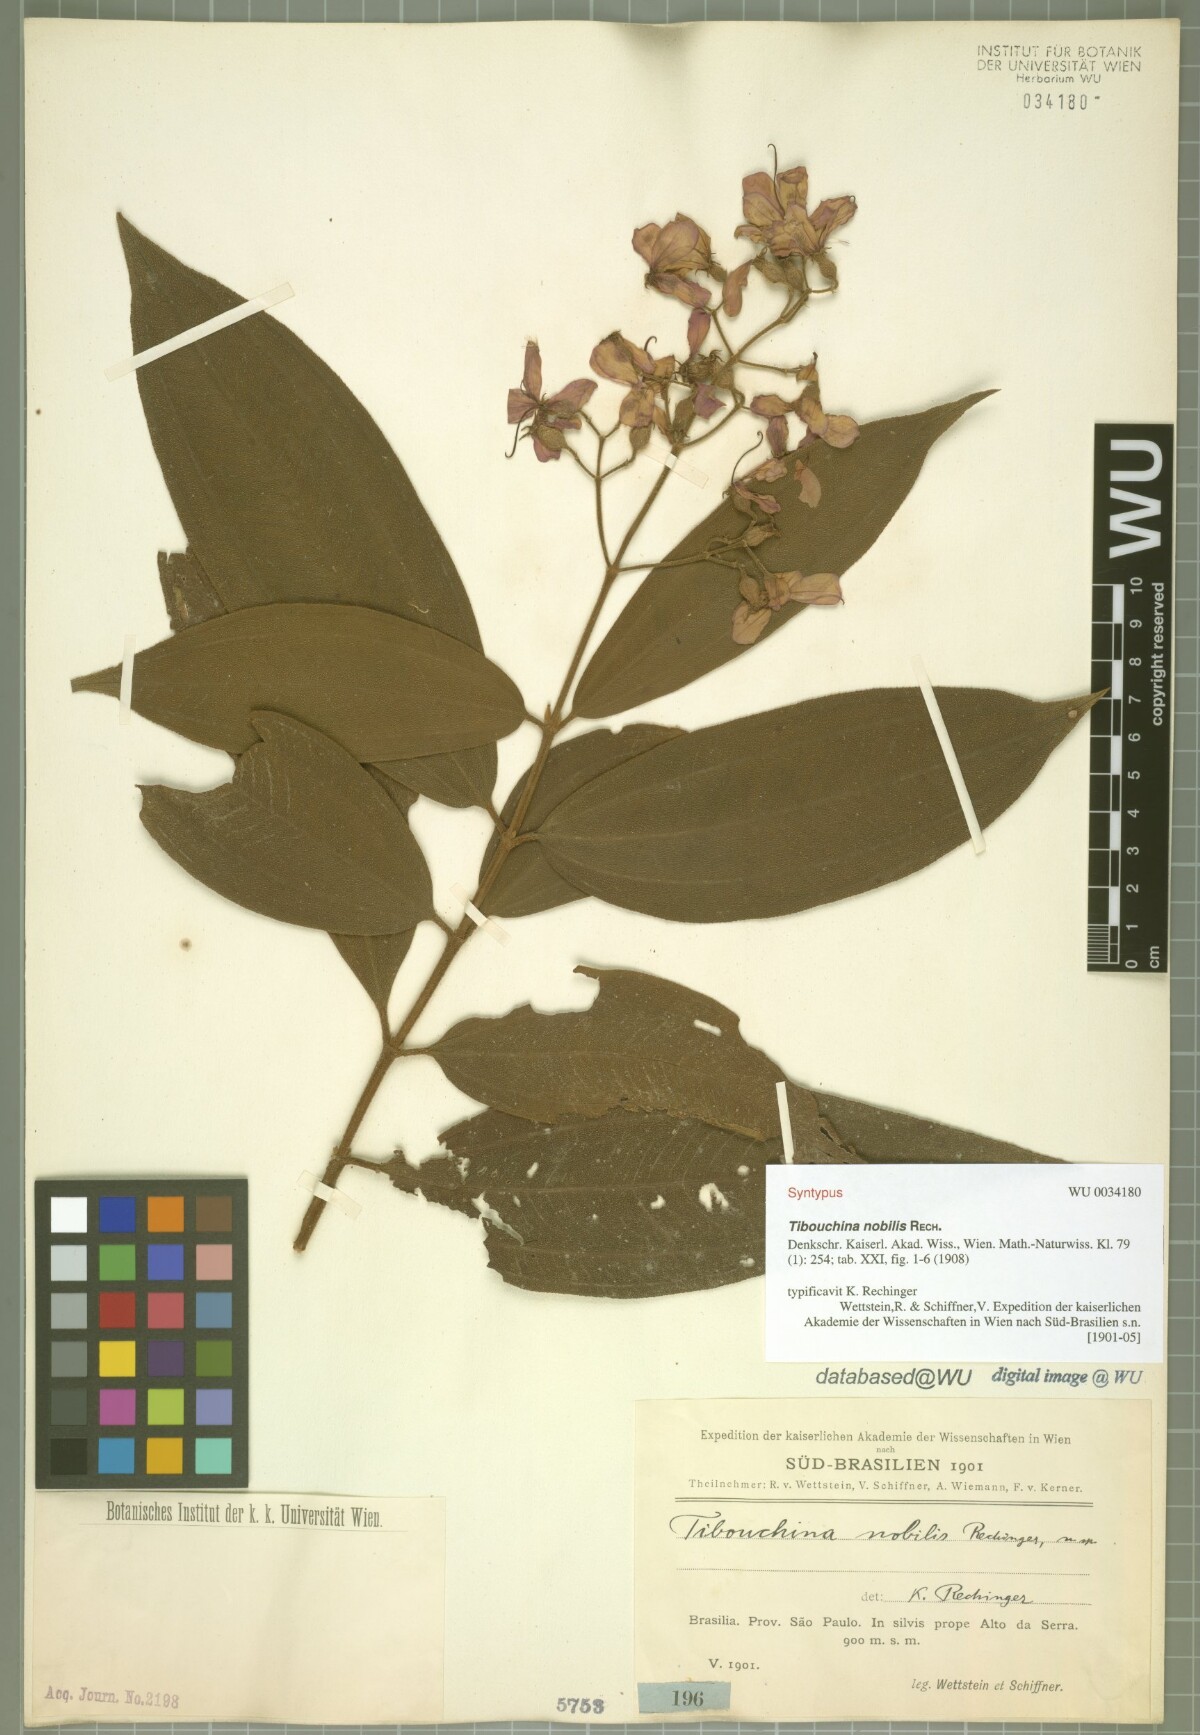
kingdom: Plantae
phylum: Tracheophyta
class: Magnoliopsida
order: Myrtales
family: Melastomataceae
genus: Pleroma
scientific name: Pleroma scaberrimum
